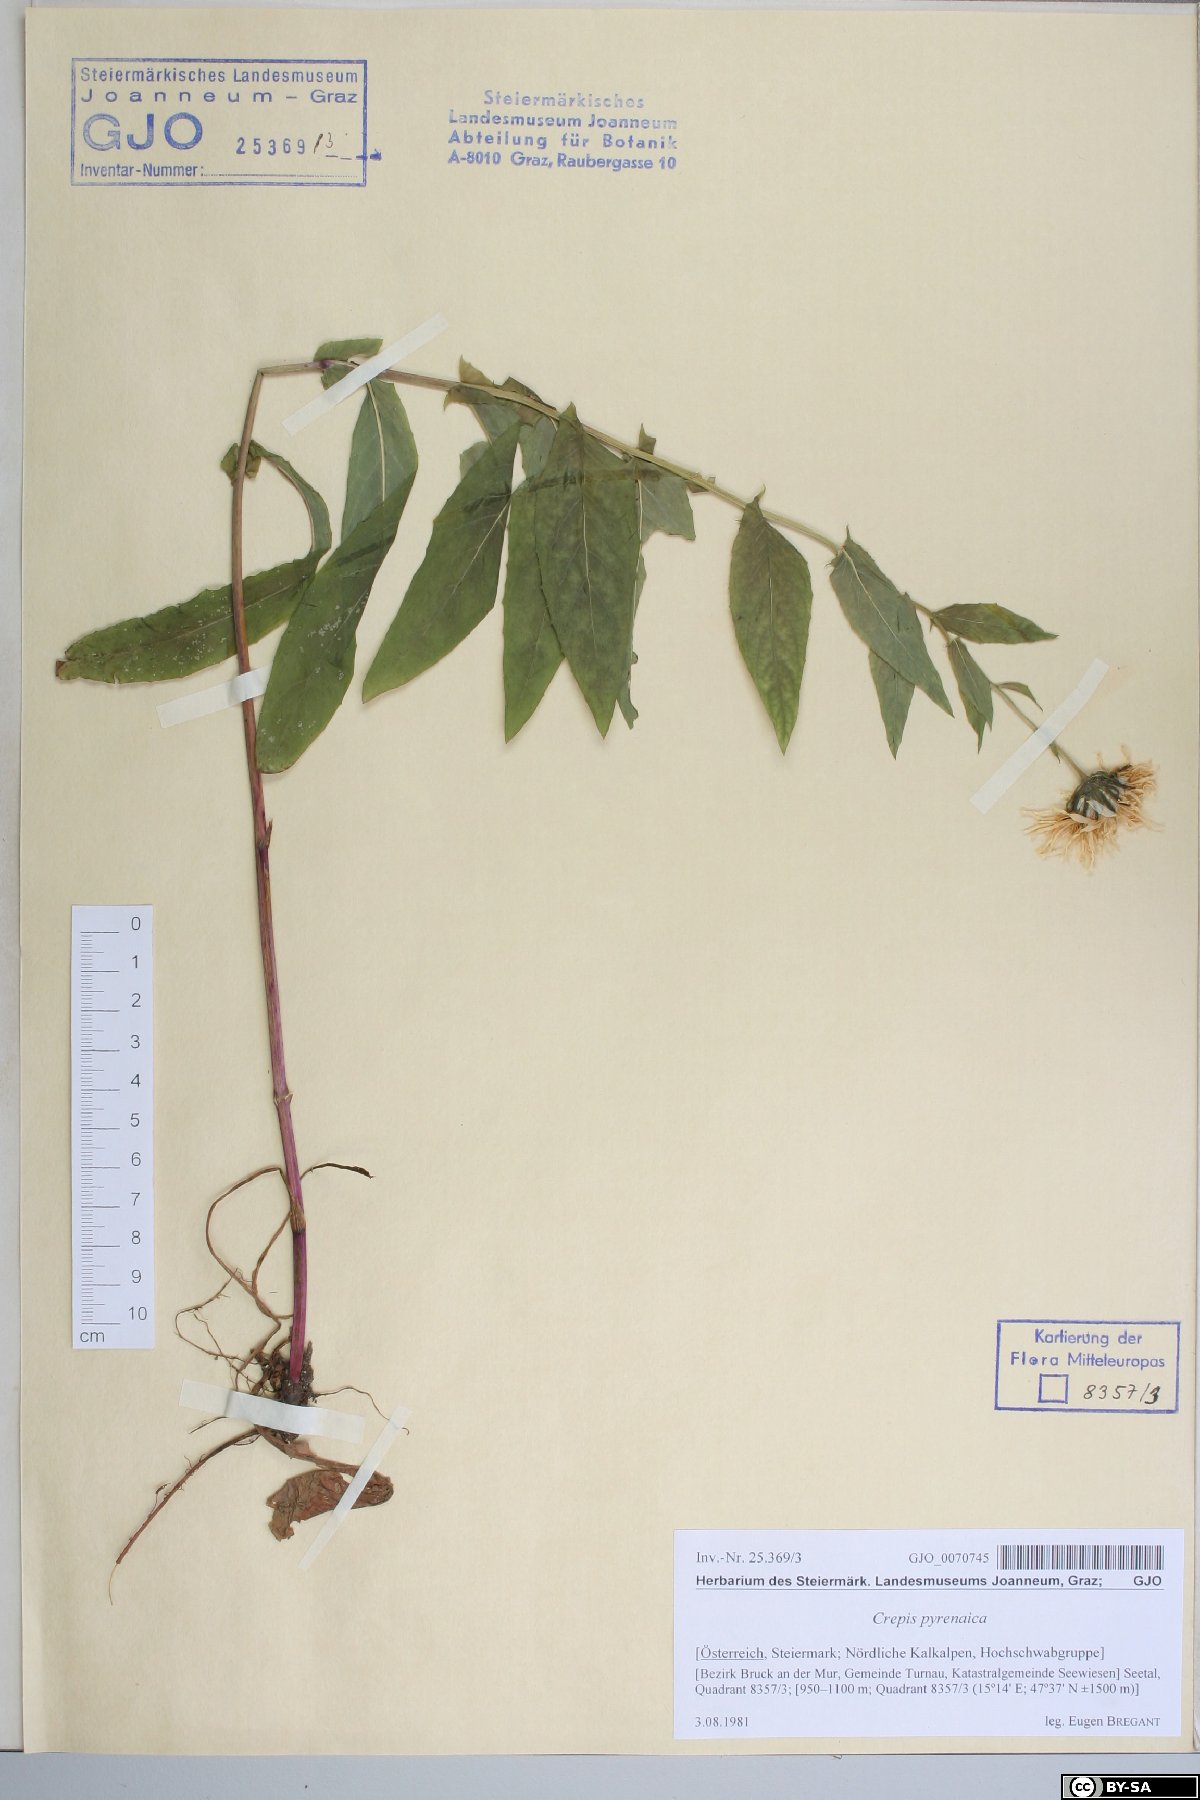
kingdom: Plantae
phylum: Tracheophyta
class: Magnoliopsida
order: Asterales
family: Asteraceae
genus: Crepis
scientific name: Crepis pyrenaica
